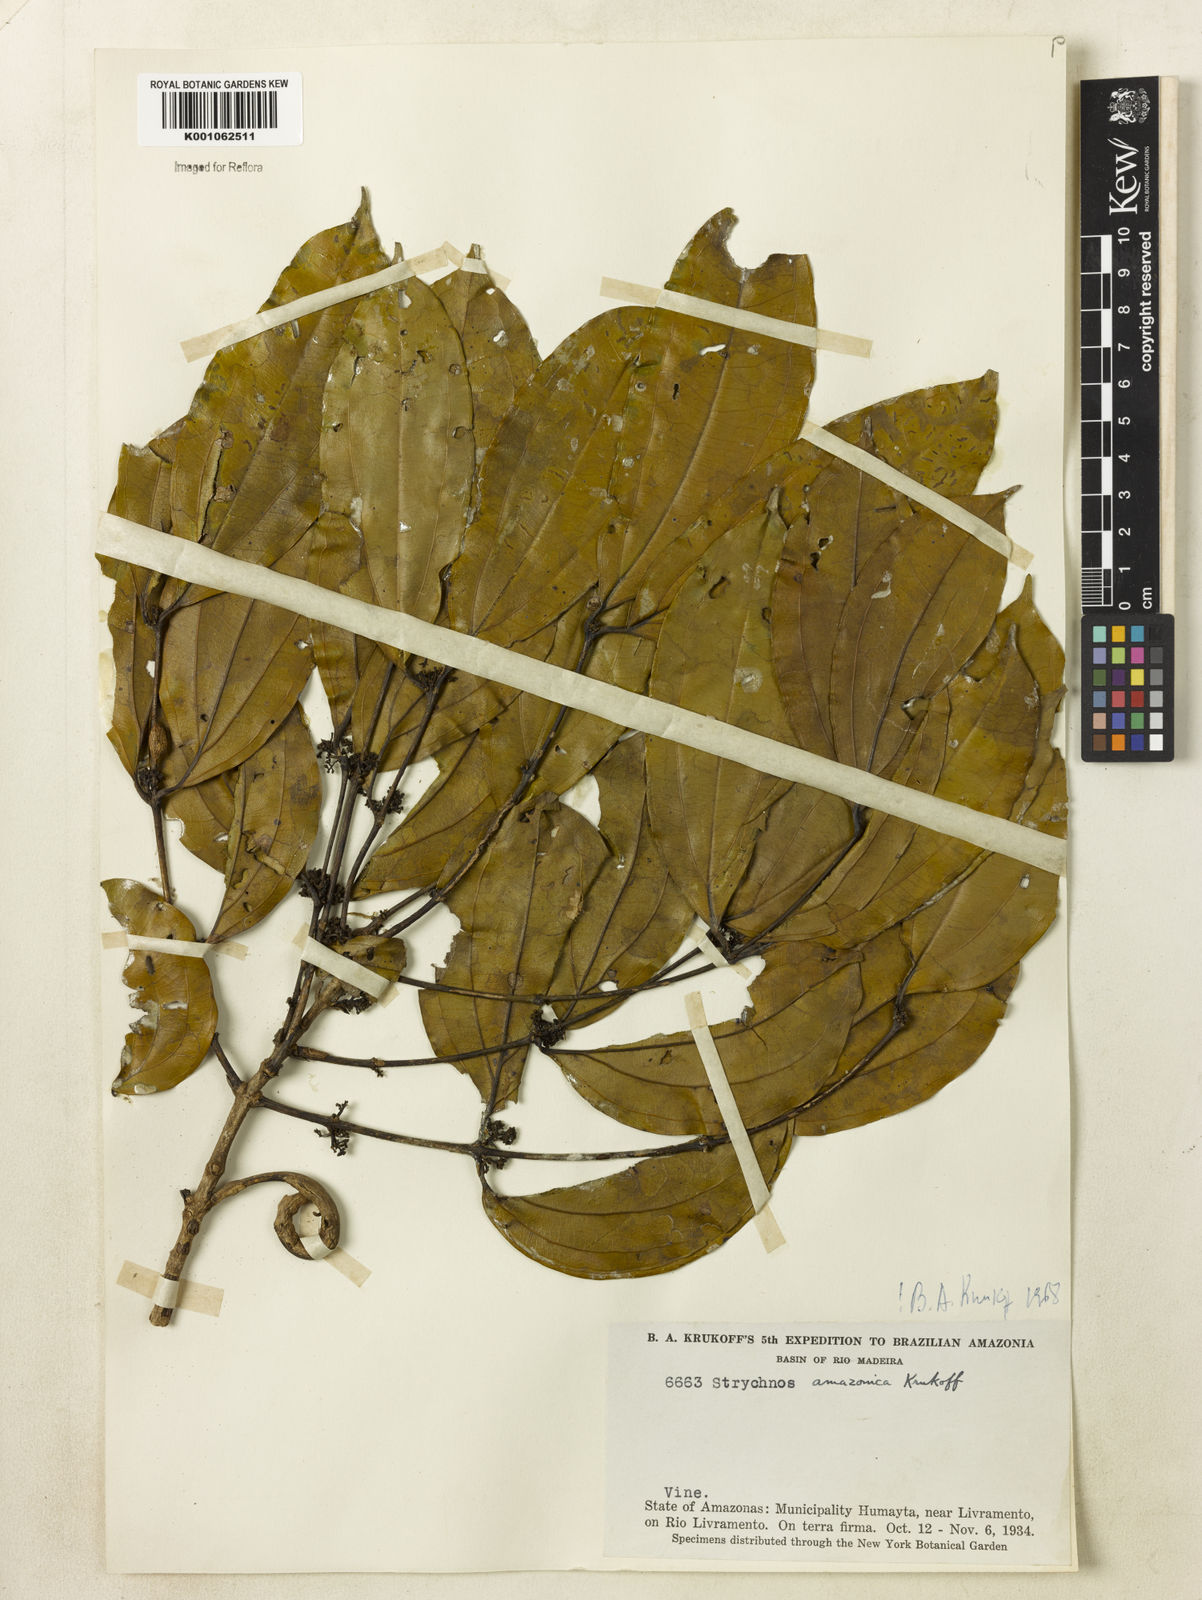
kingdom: Plantae
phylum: Tracheophyta
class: Magnoliopsida
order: Gentianales
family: Loganiaceae
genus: Strychnos
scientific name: Strychnos amazonica
